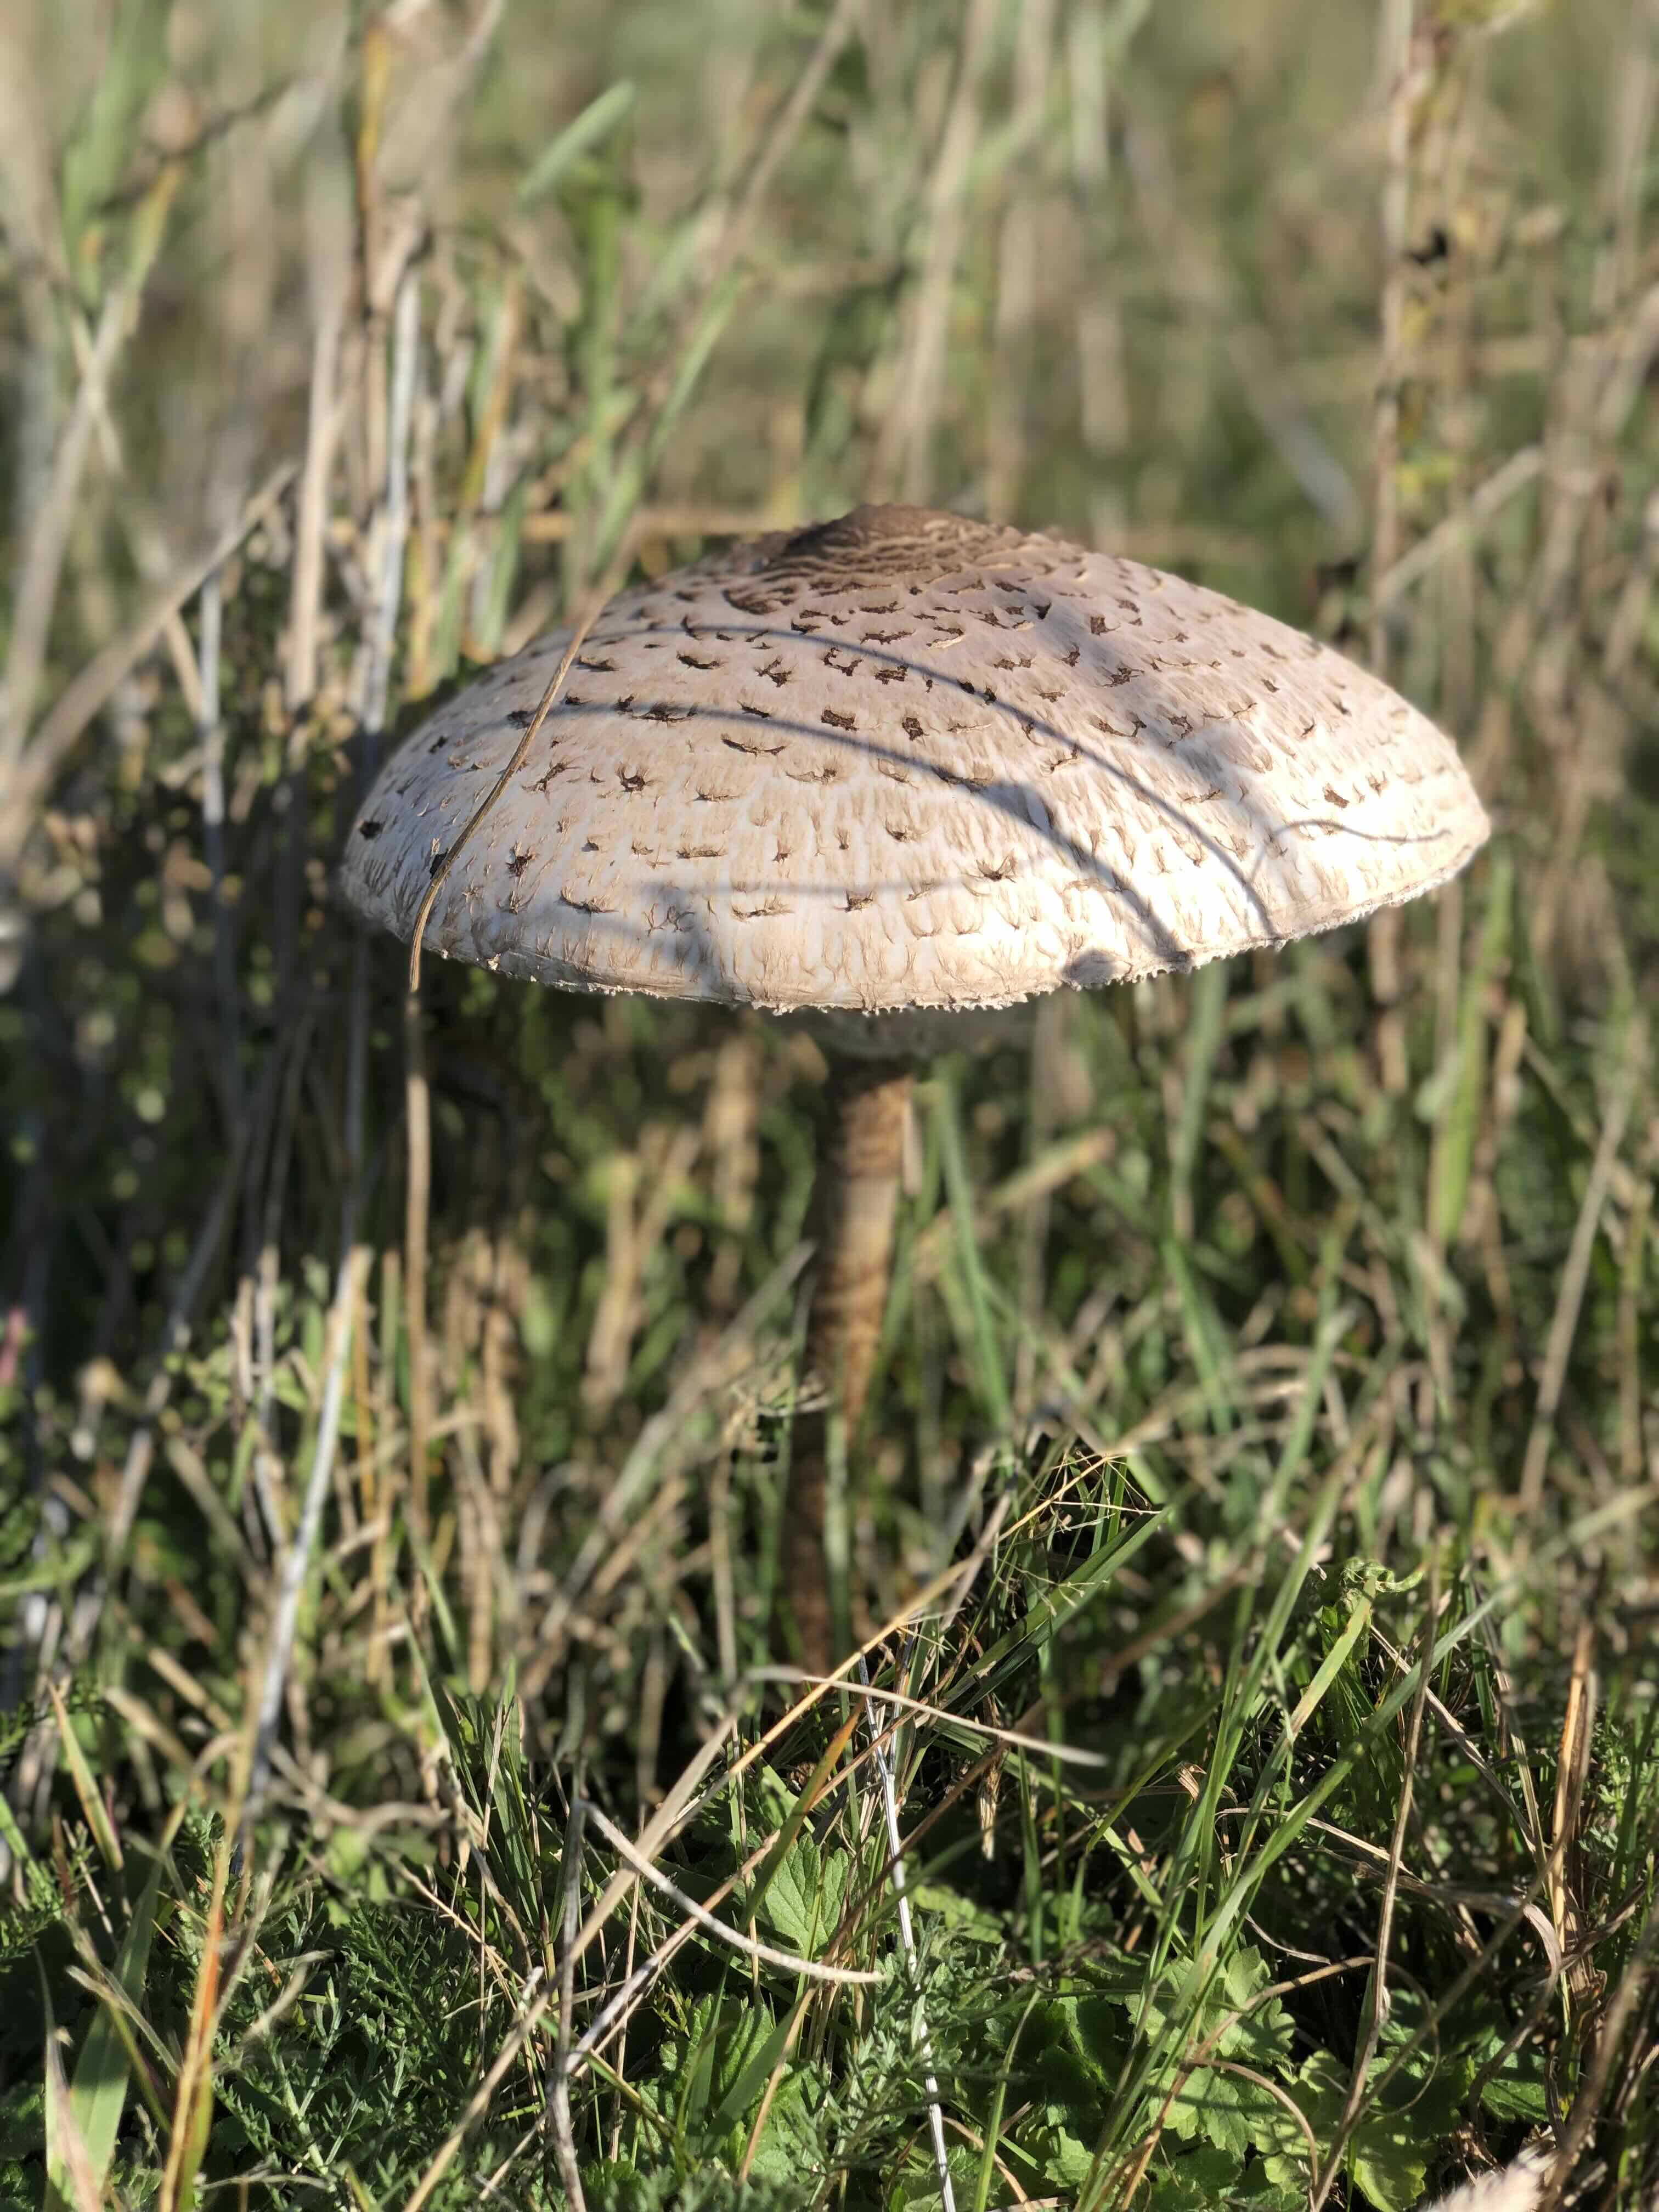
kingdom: Fungi
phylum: Basidiomycota
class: Agaricomycetes
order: Agaricales
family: Agaricaceae
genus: Macrolepiota
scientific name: Macrolepiota procera
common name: stor kæmpeparasolhat
